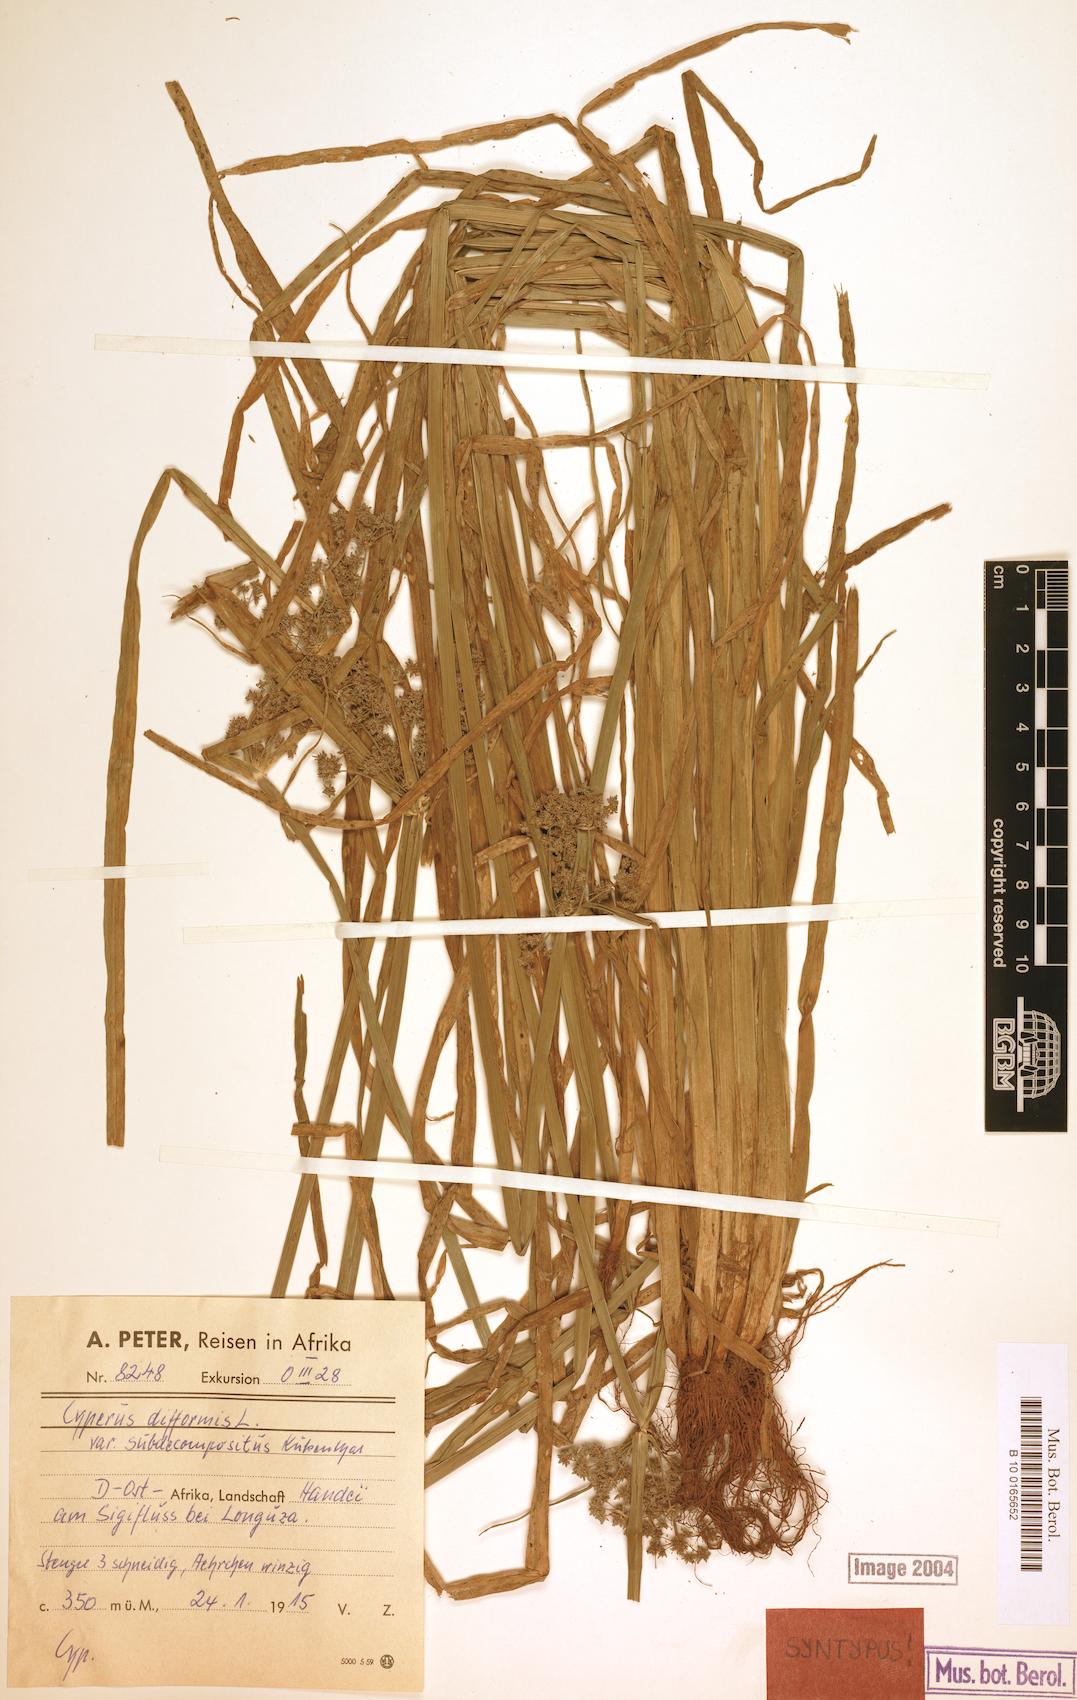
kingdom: Plantae
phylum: Tracheophyta
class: Liliopsida
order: Poales
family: Cyperaceae
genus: Cyperus
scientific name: Cyperus difformis
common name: Variable flatsedge
